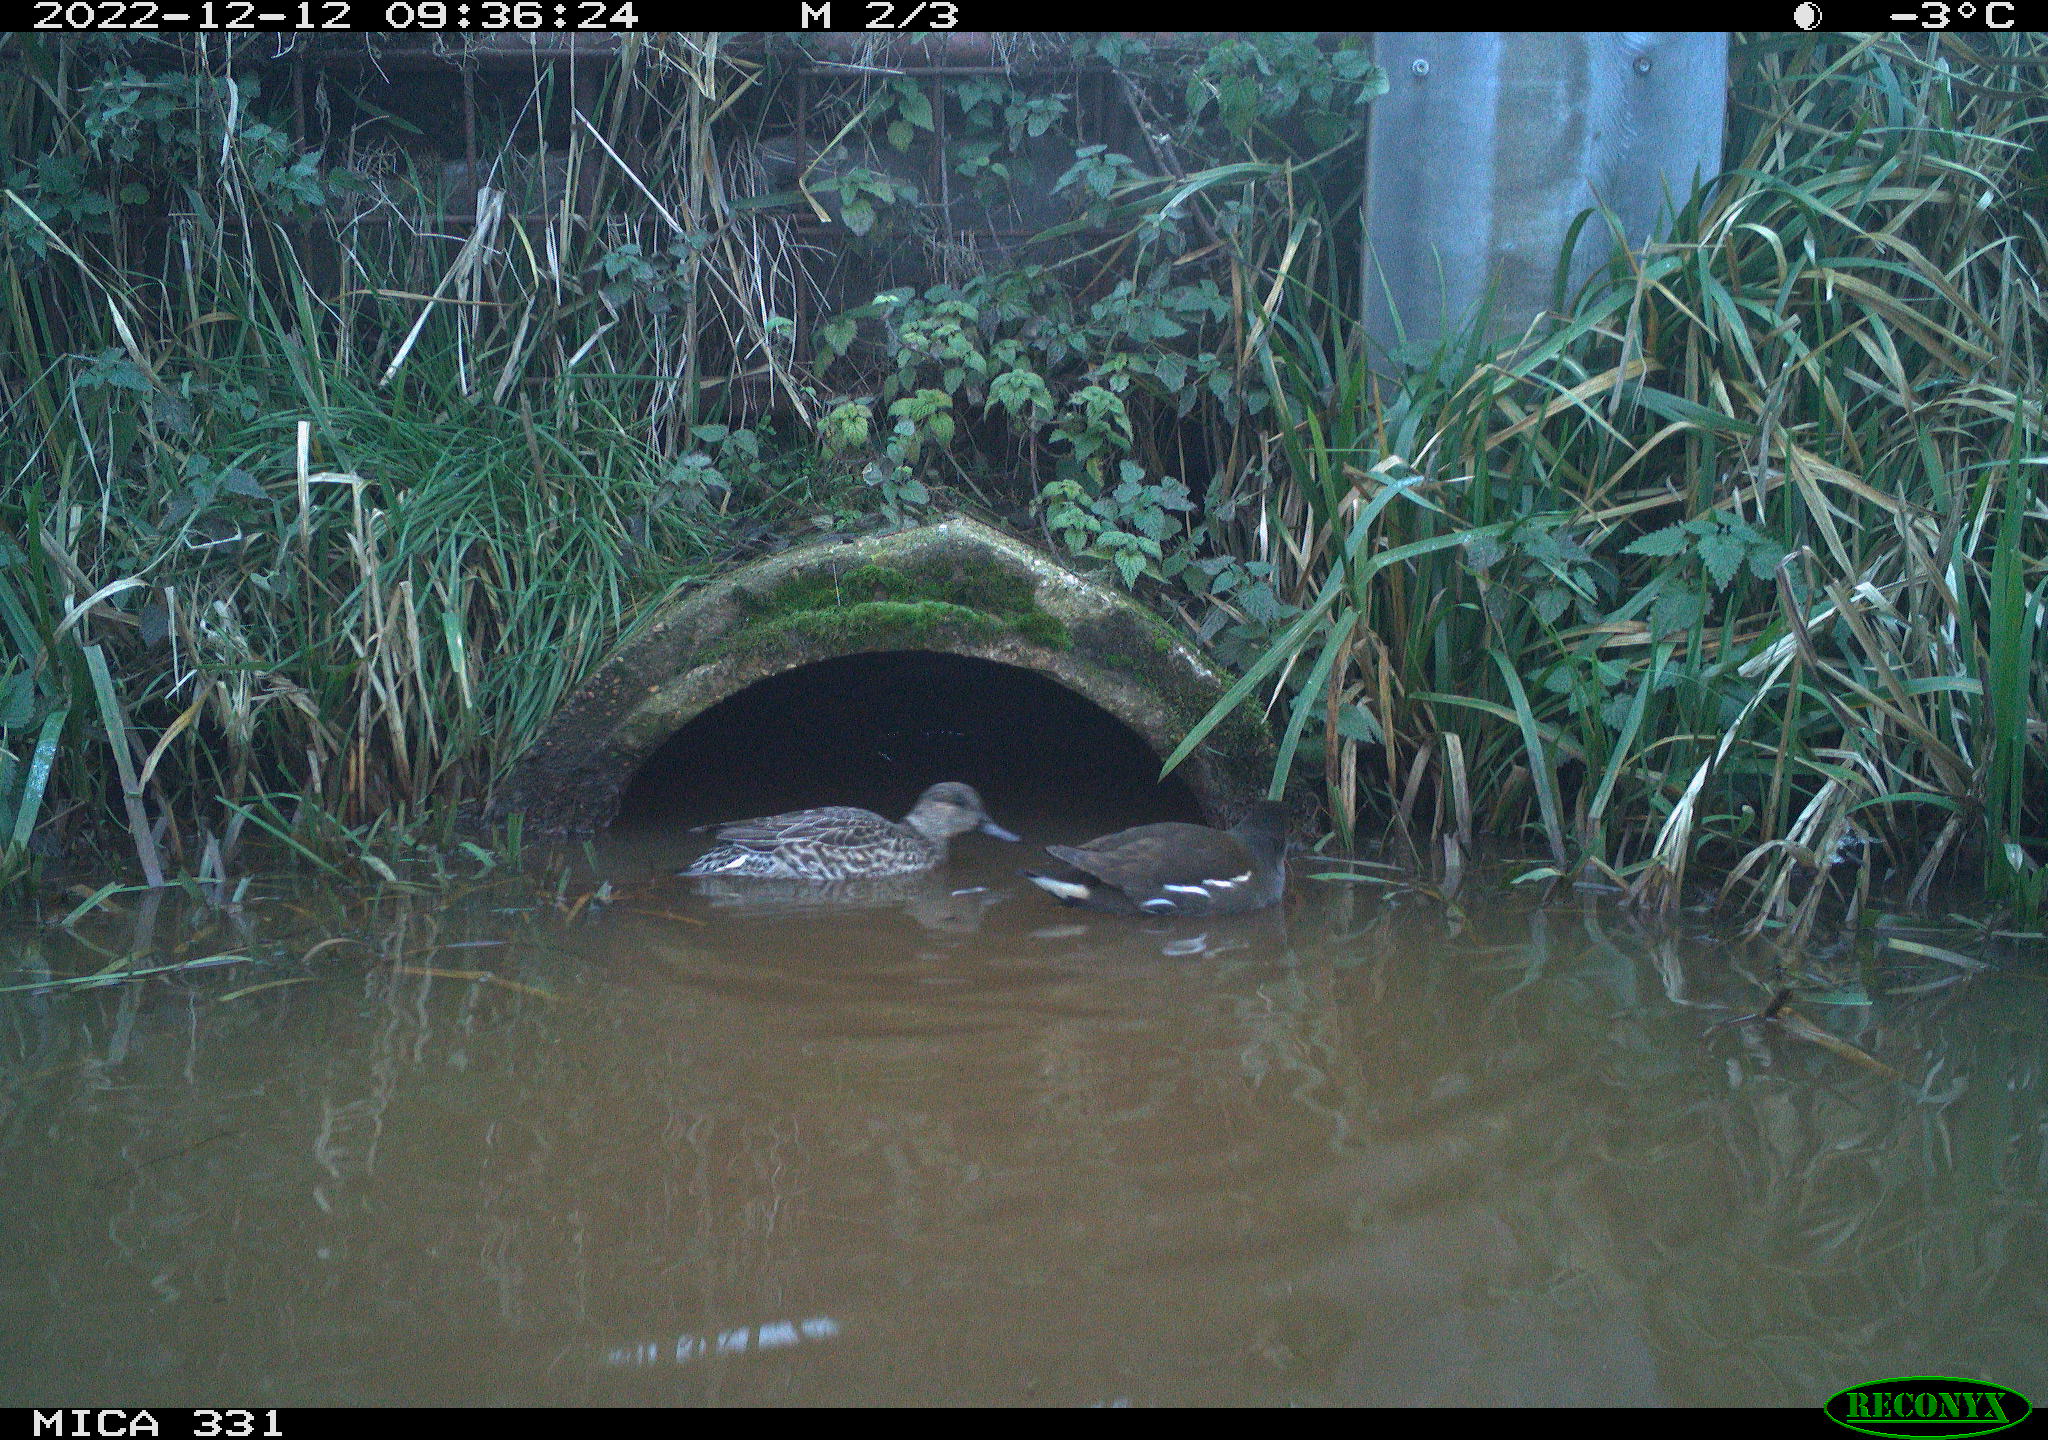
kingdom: Animalia
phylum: Chordata
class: Aves
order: Gruiformes
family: Rallidae
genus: Gallinula
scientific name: Gallinula chloropus
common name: Common moorhen
